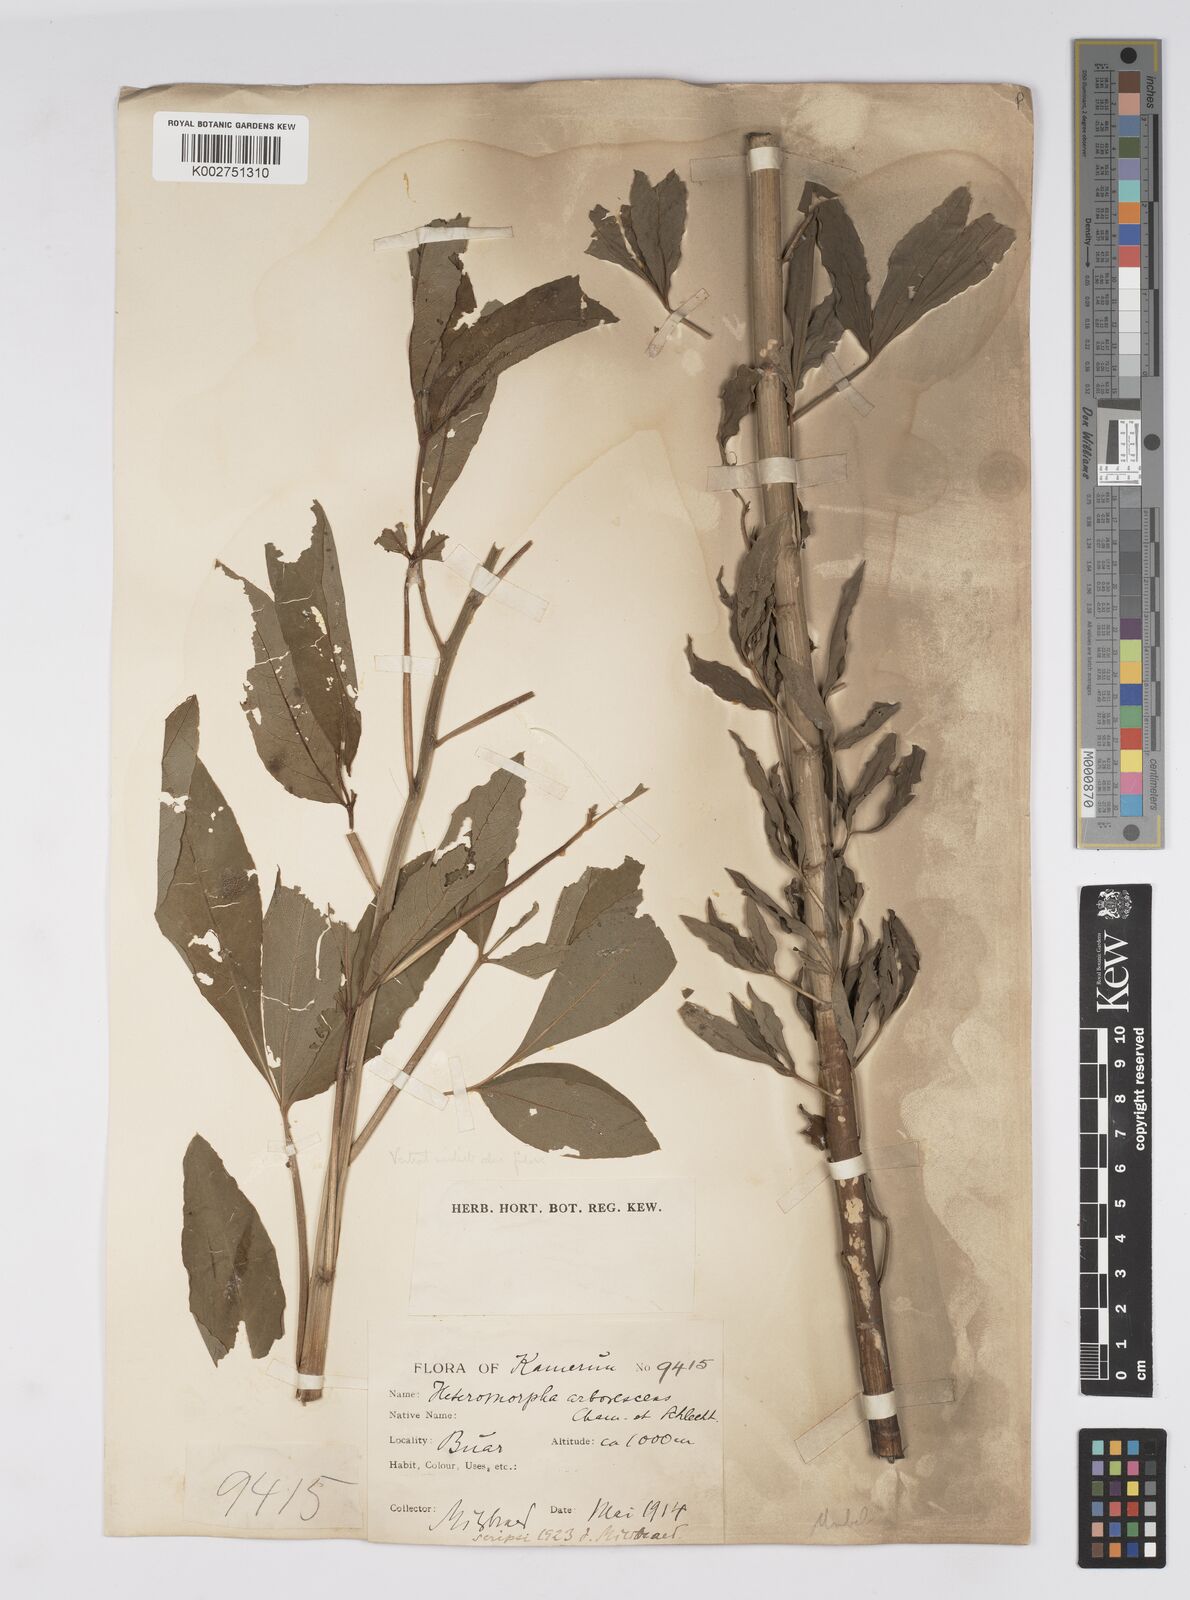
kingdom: Plantae
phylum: Tracheophyta
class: Magnoliopsida
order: Apiales
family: Apiaceae
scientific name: Apiaceae
